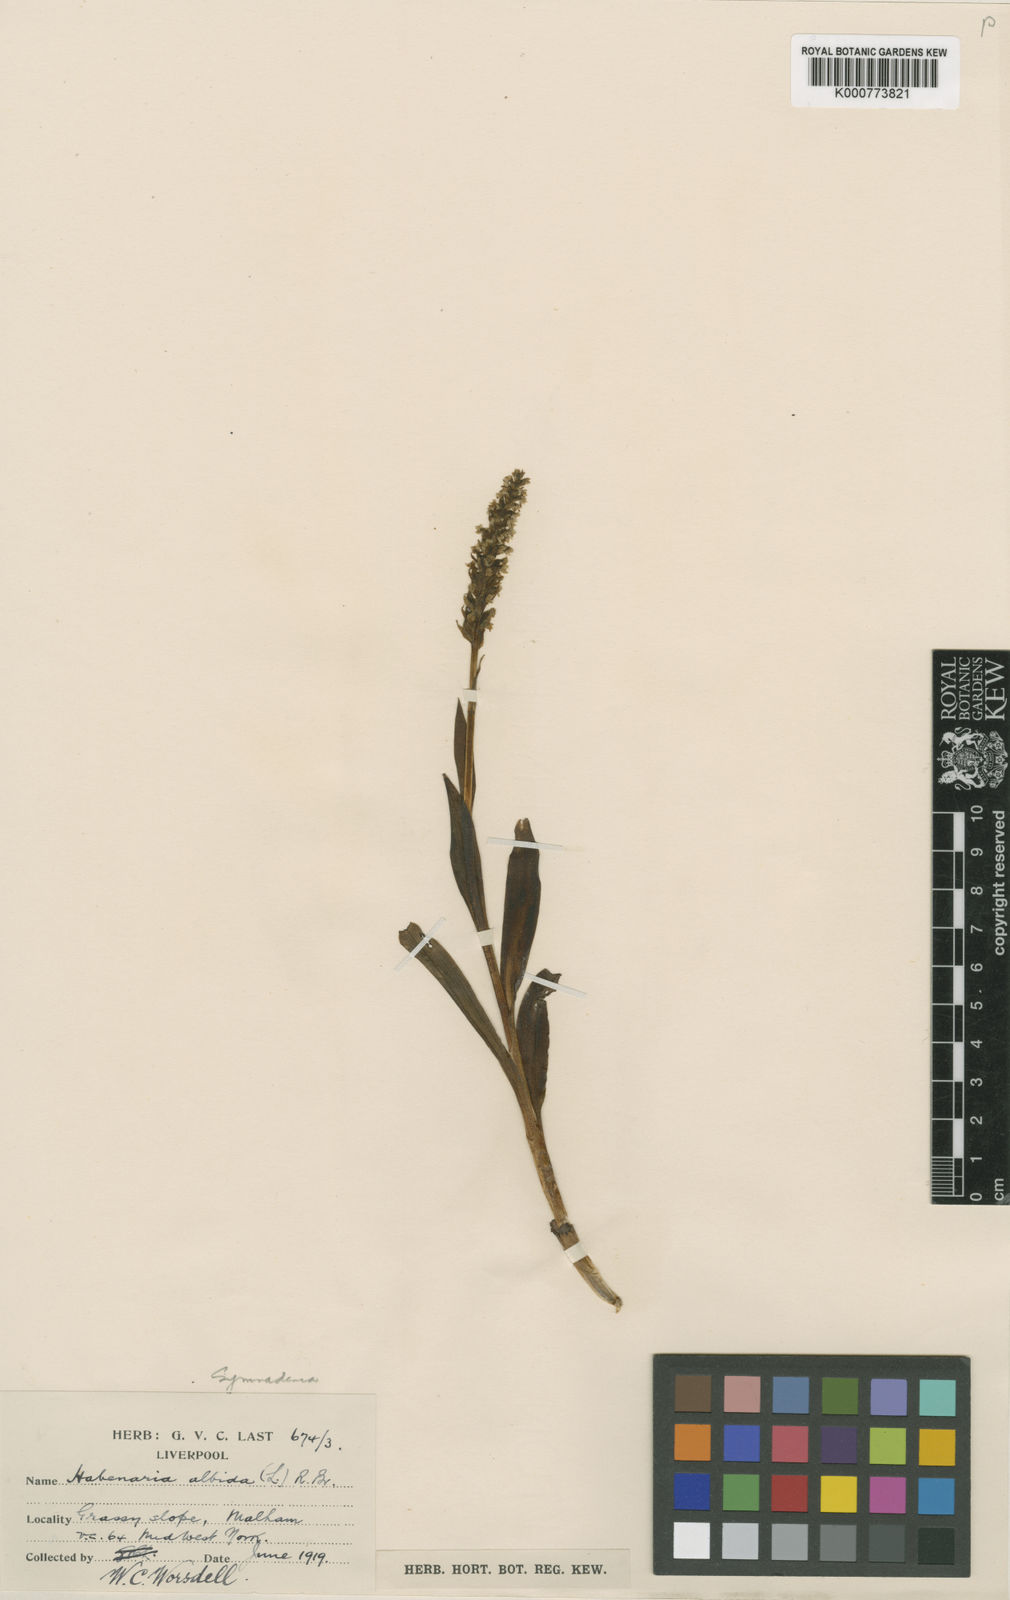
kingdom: Plantae
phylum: Tracheophyta
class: Liliopsida
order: Asparagales
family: Orchidaceae
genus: Pseudorchis
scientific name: Pseudorchis
